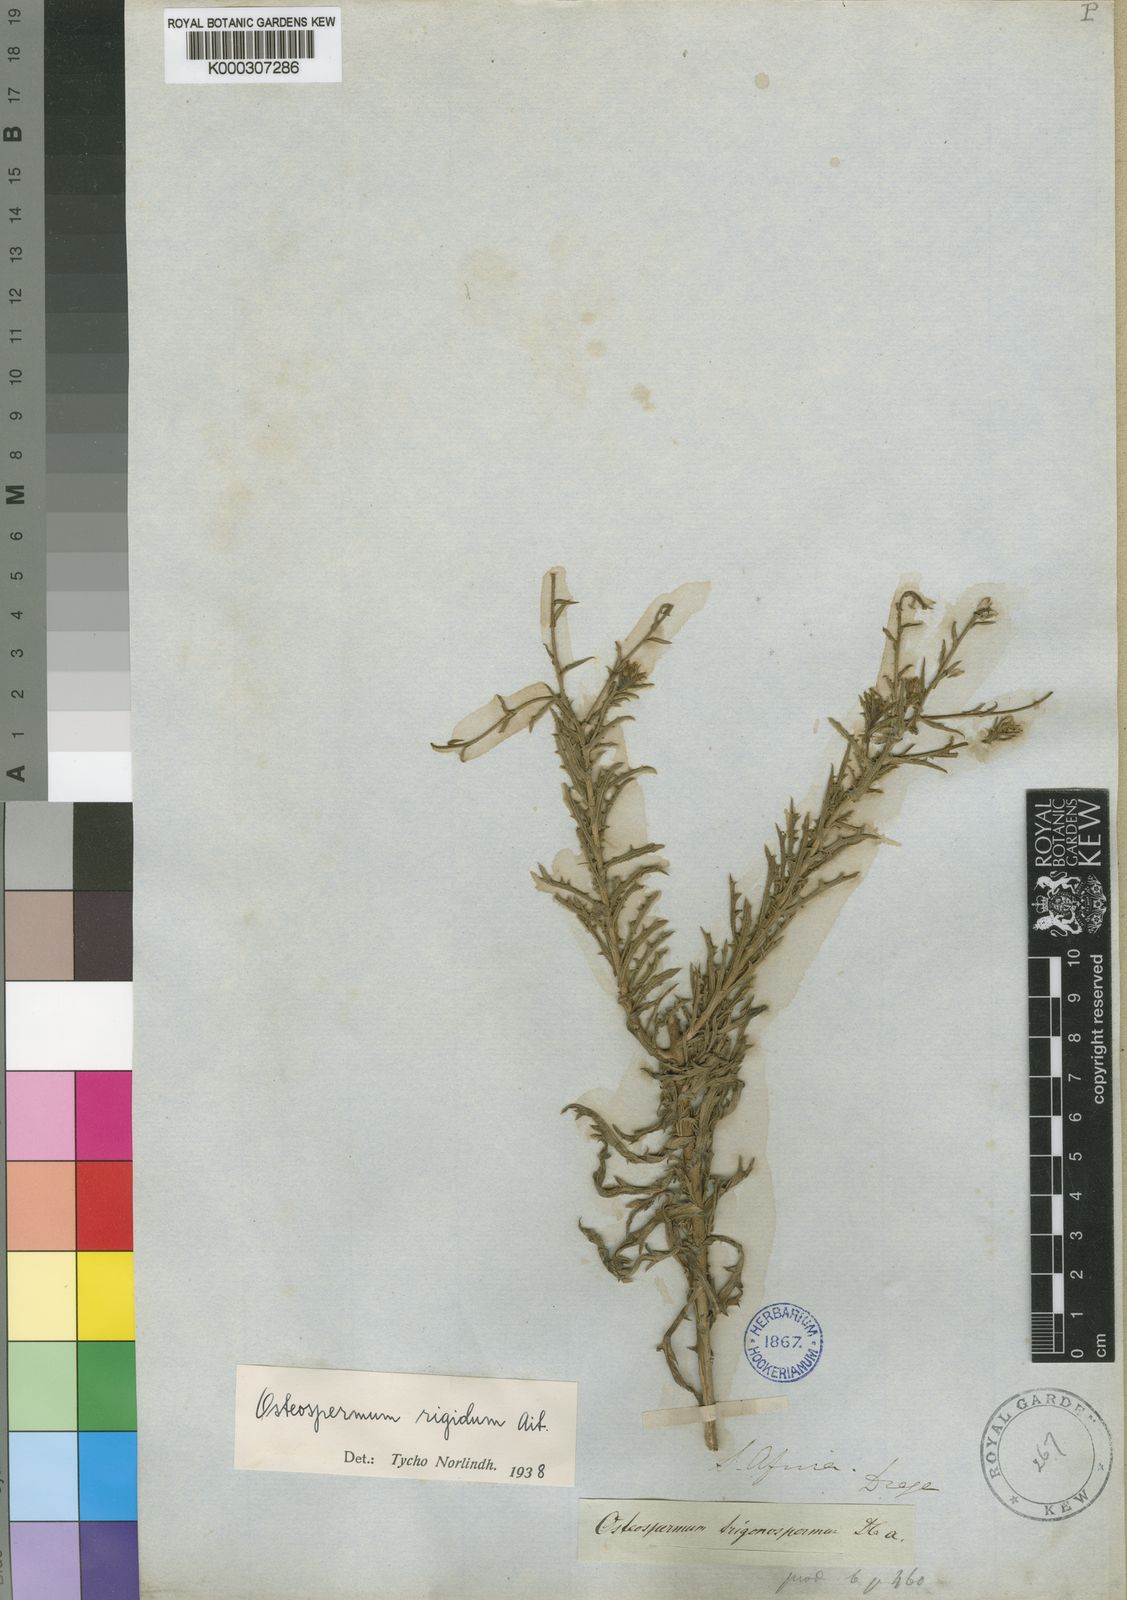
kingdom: Plantae
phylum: Tracheophyta
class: Magnoliopsida
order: Asterales
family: Asteraceae
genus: Osteospermum
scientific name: Osteospermum rigidum
